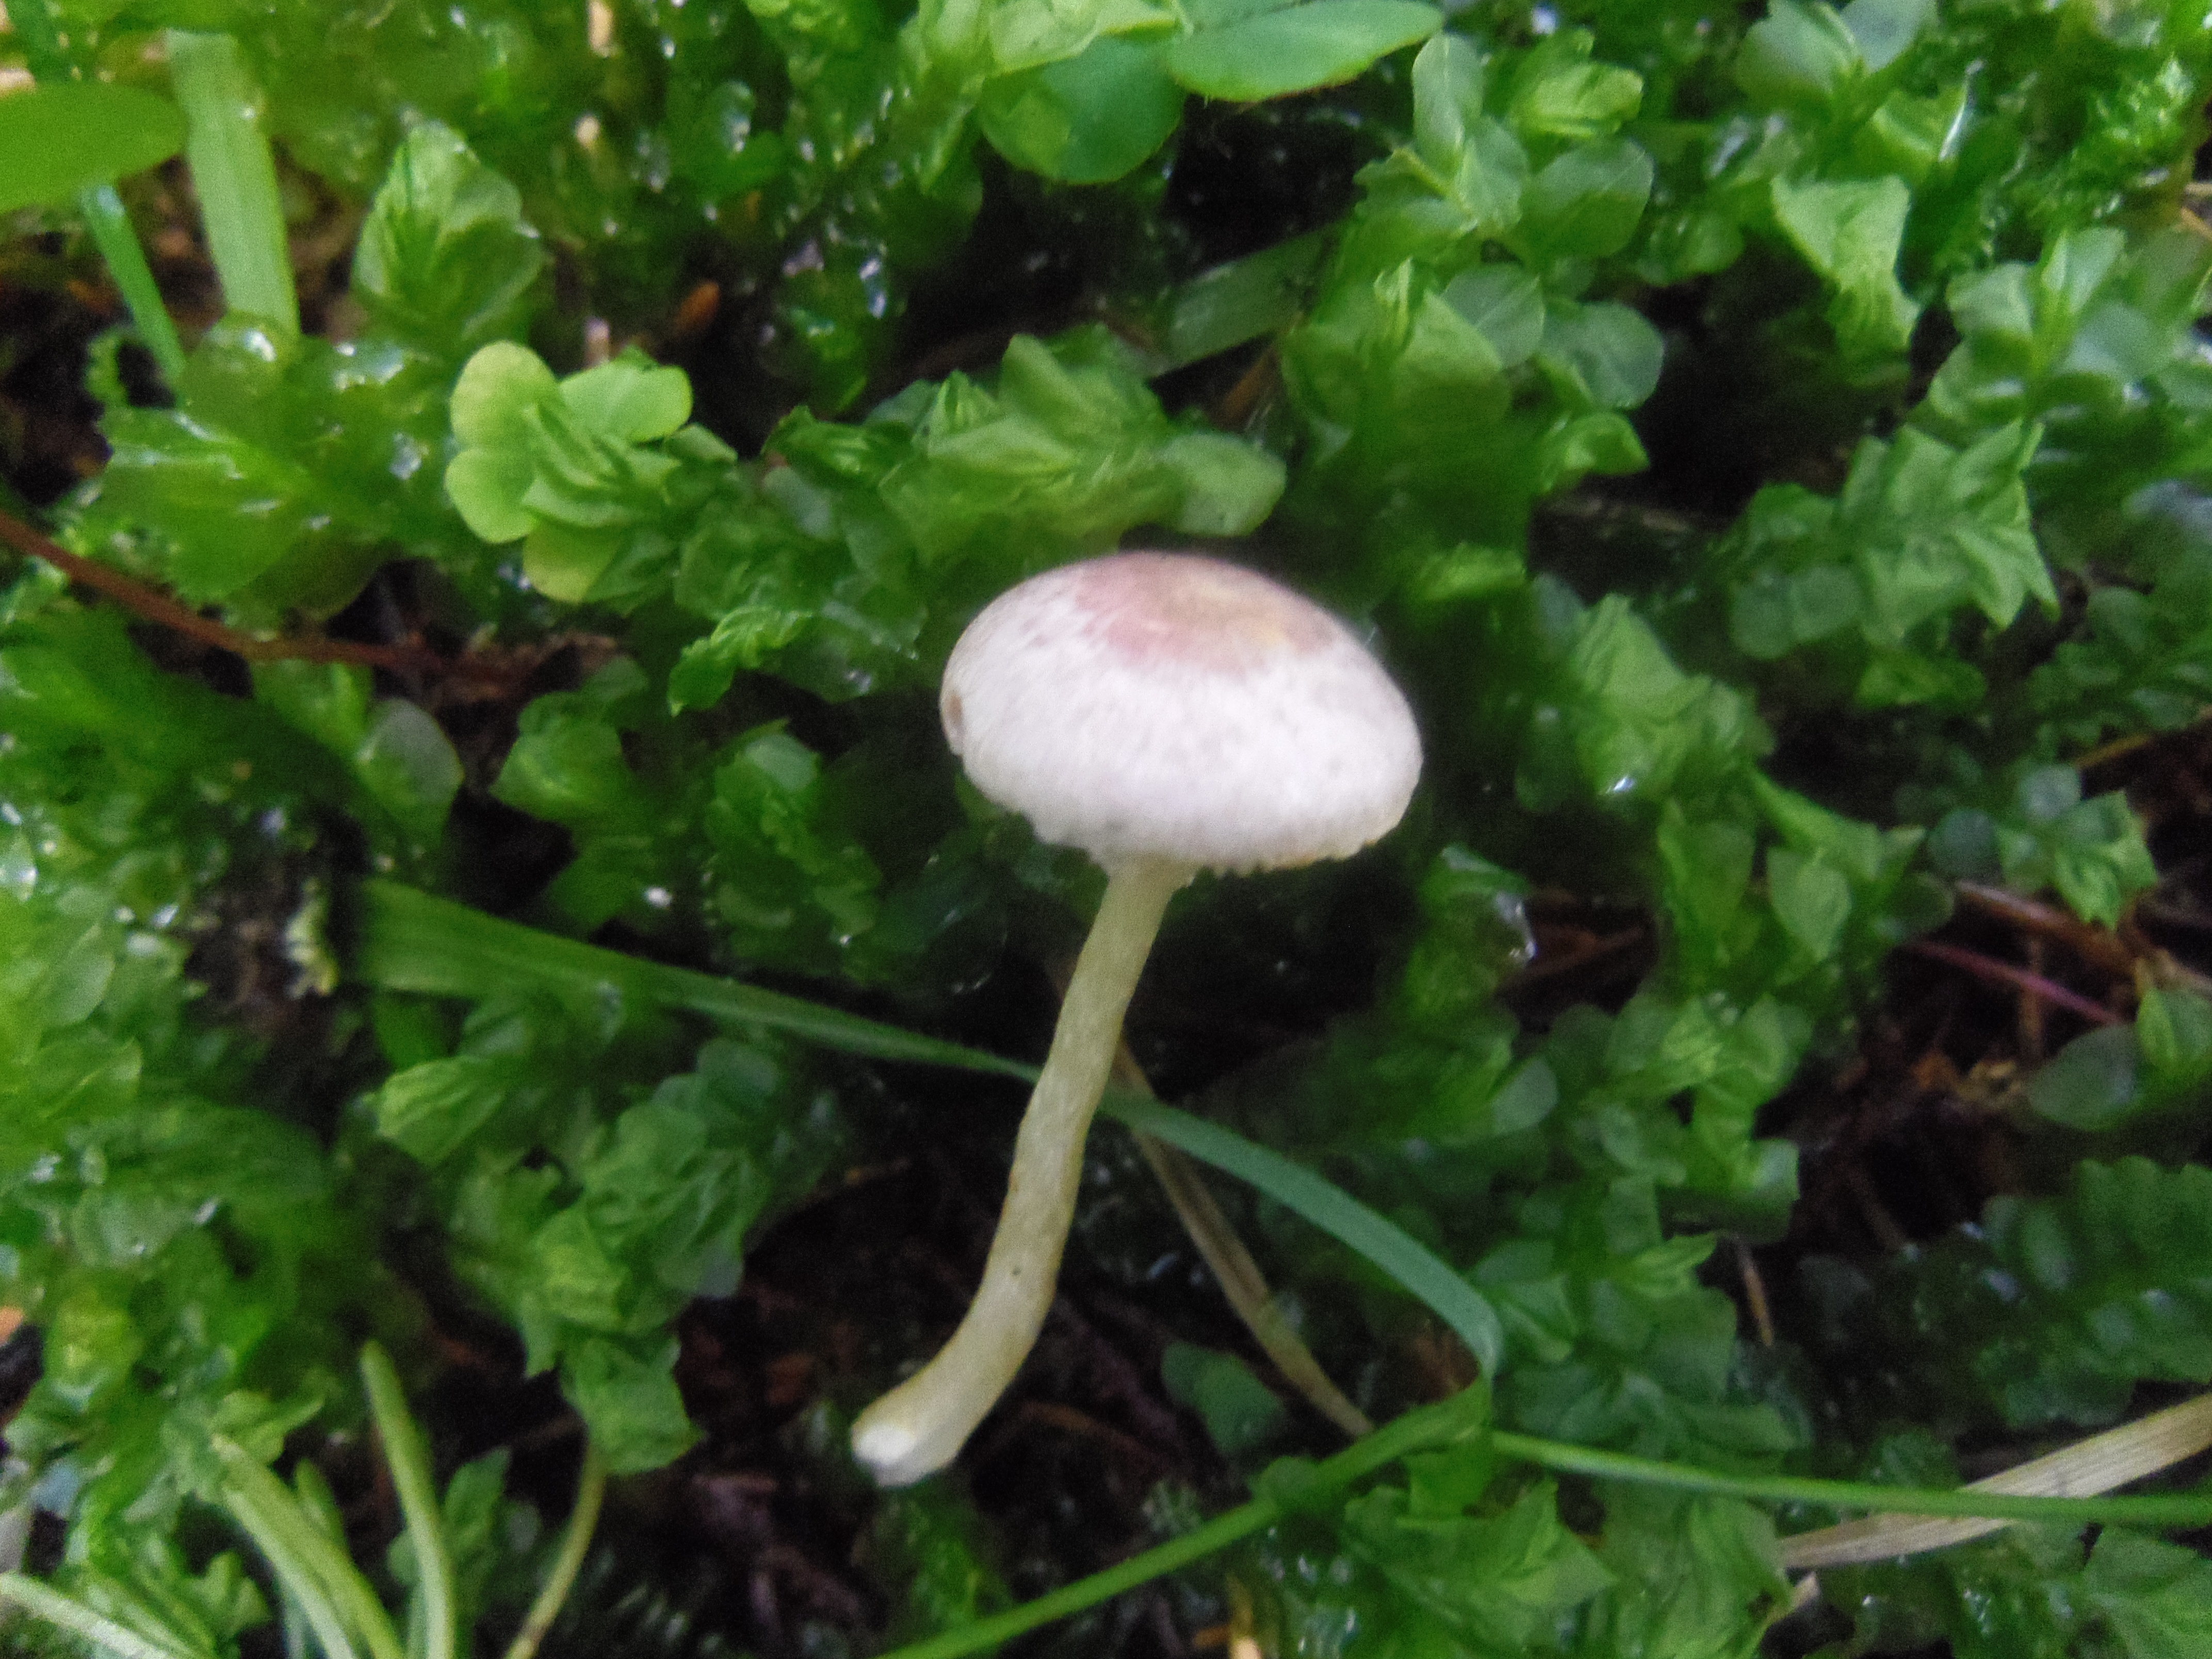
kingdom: Fungi
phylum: Basidiomycota
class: Agaricomycetes
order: Agaricales
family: Agaricaceae
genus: Agaricus
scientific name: Agaricus dulcidulus
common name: Rosy wood mushroom
